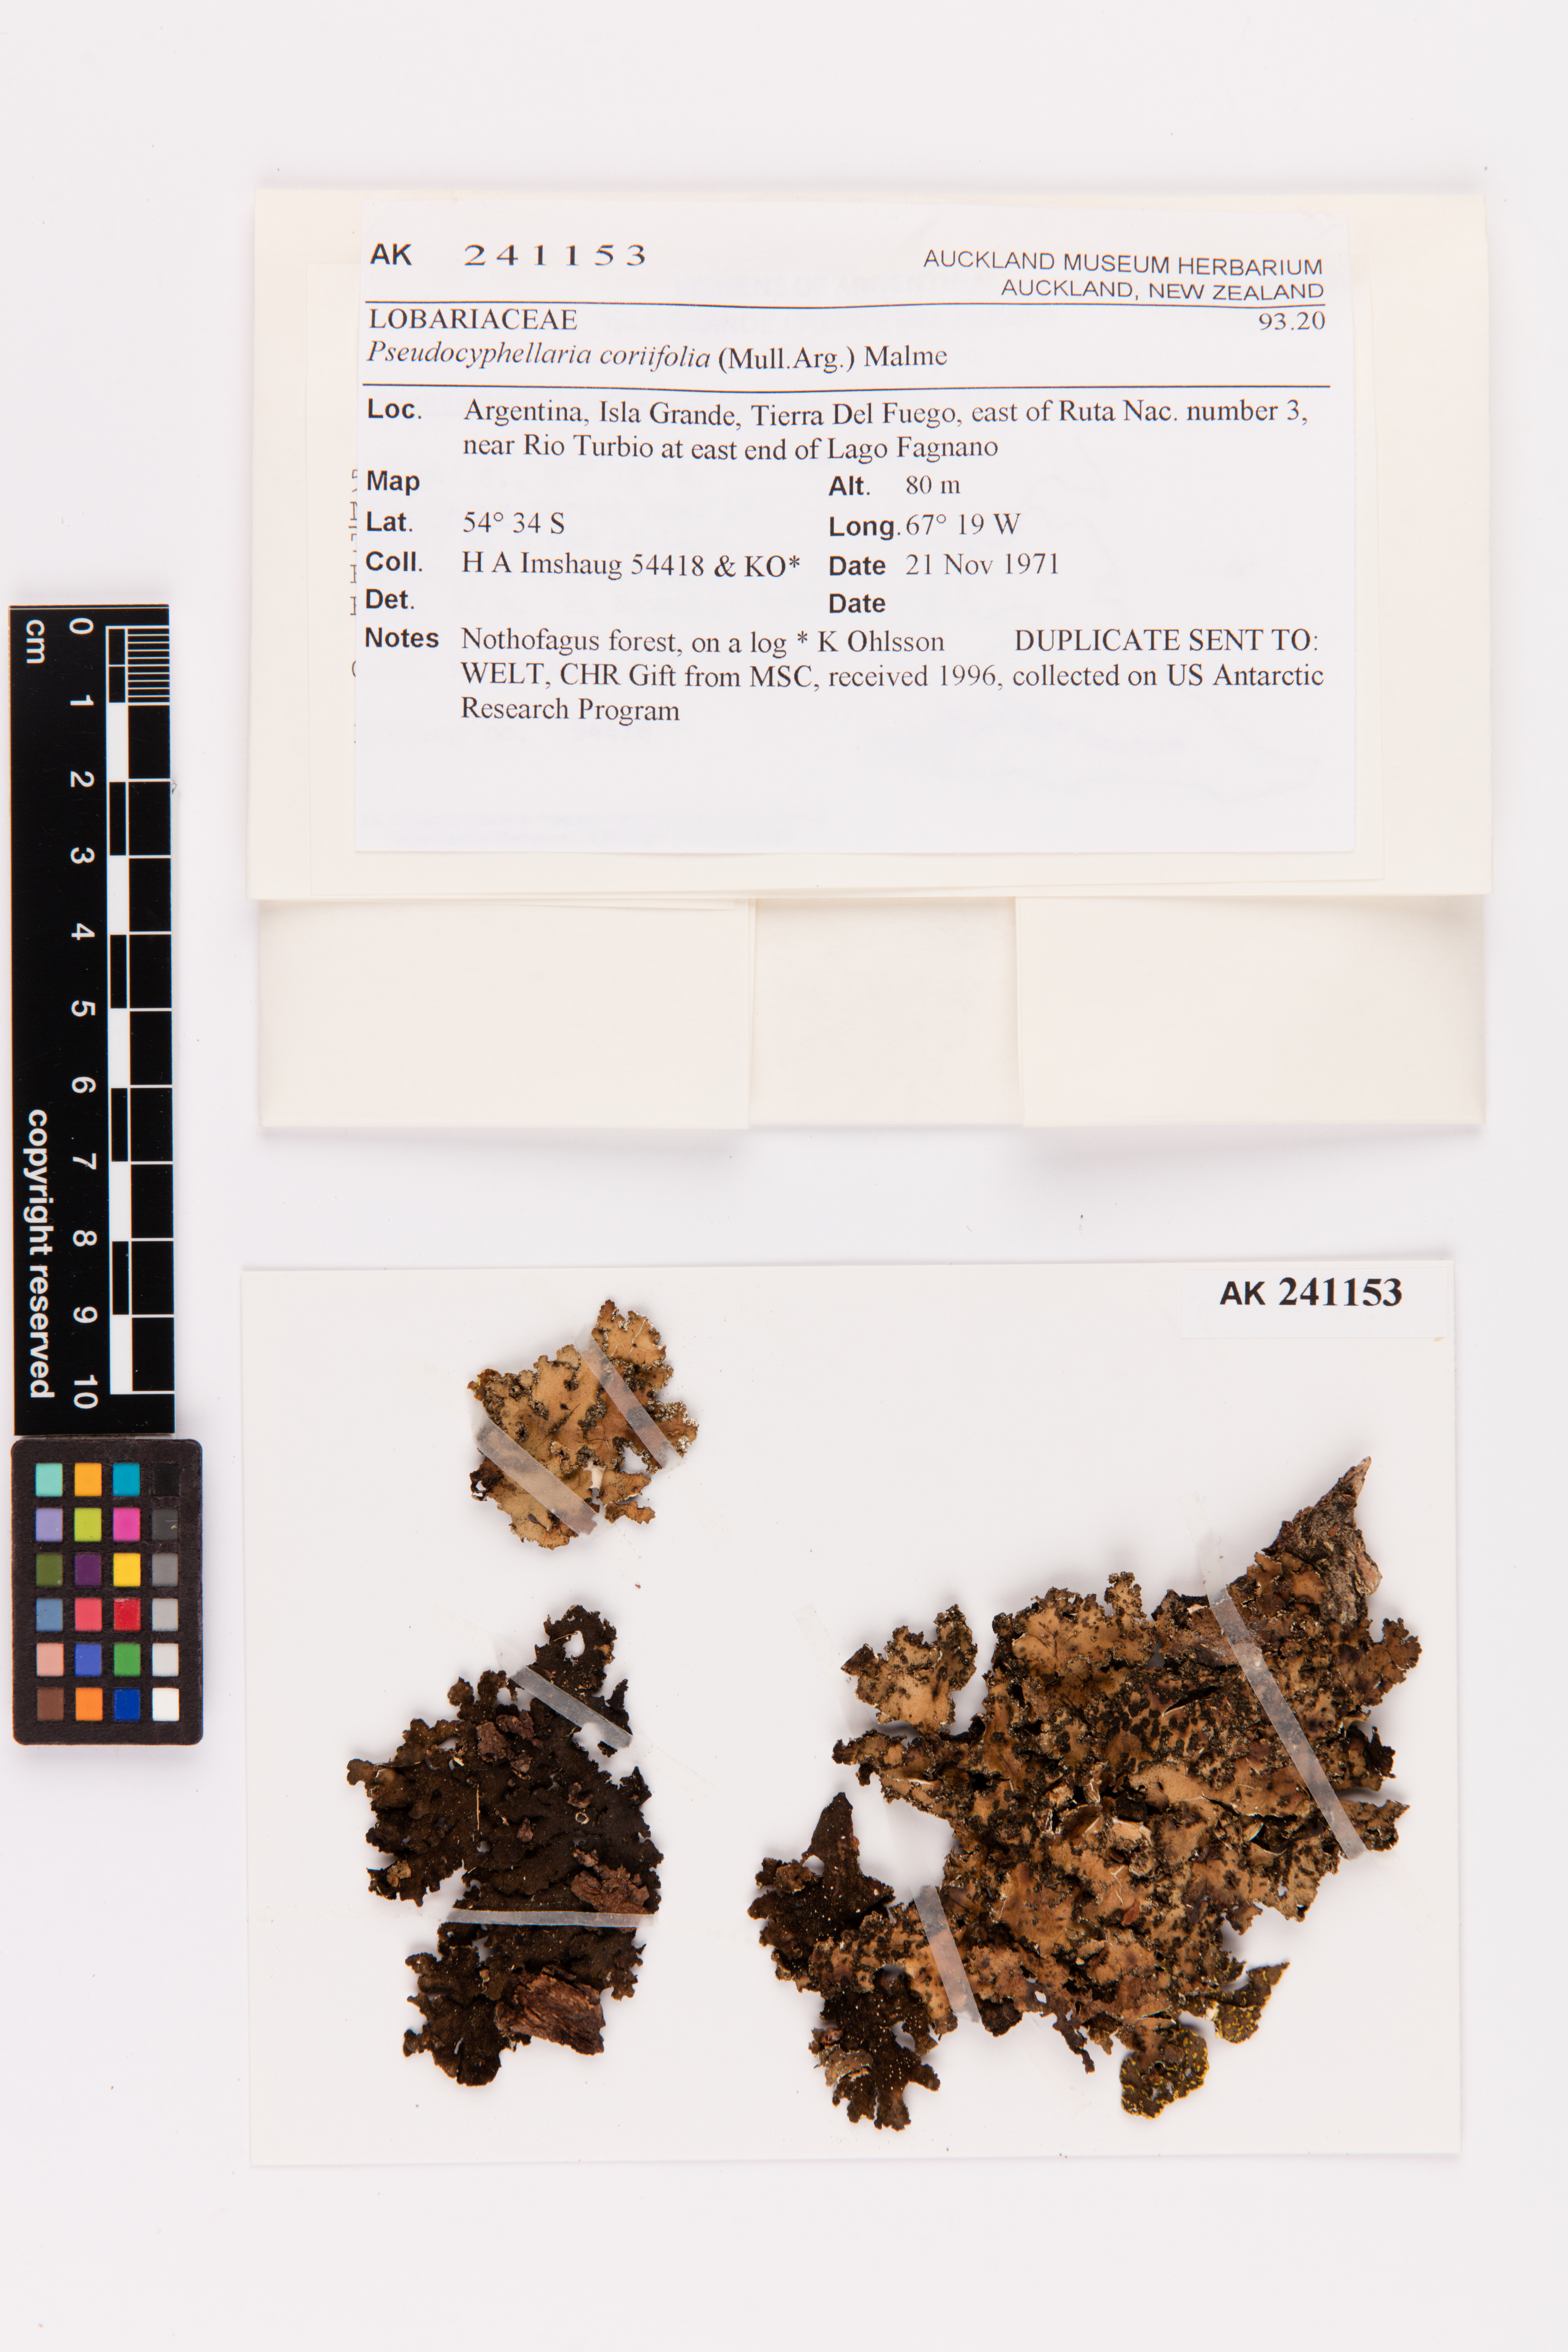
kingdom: Fungi
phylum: Ascomycota
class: Lecanoromycetes
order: Peltigerales
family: Lobariaceae
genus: Pseudocyphellaria
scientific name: Pseudocyphellaria coriifolia
